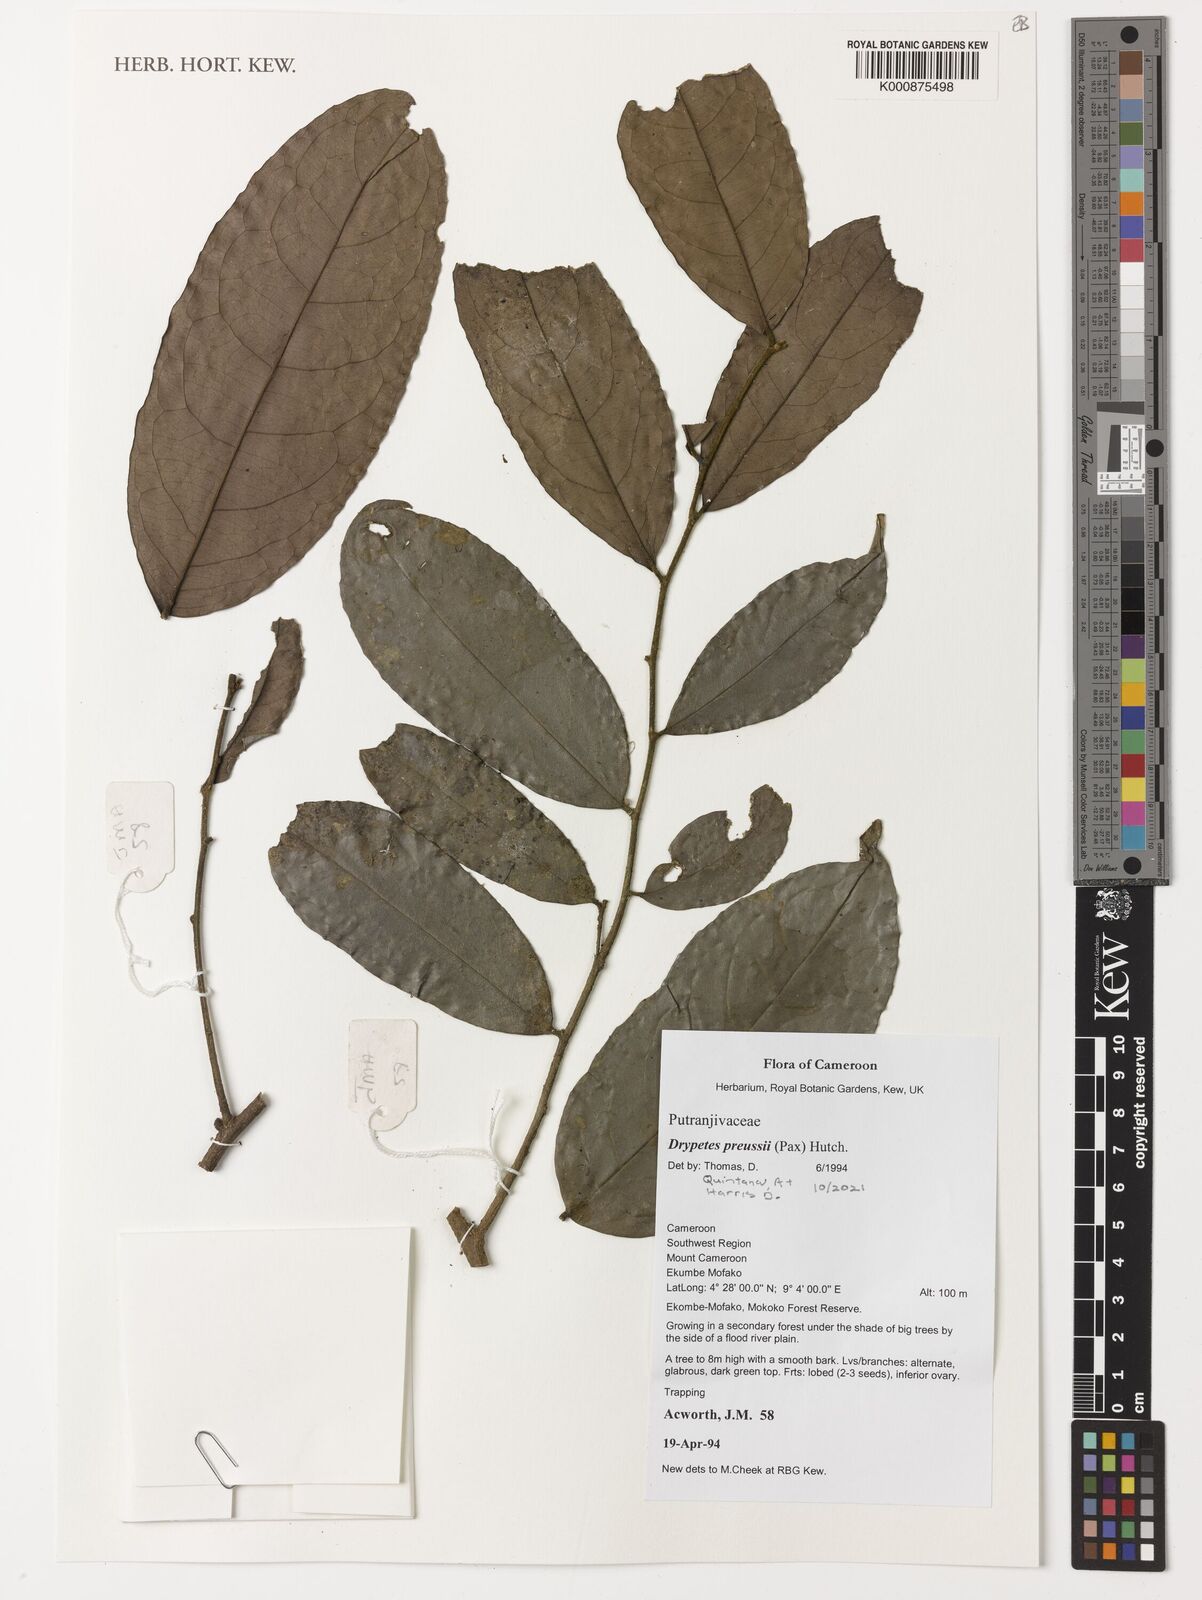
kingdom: Plantae
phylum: Tracheophyta
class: Magnoliopsida
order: Malpighiales
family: Putranjivaceae
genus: Drypetes
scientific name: Drypetes preussii
